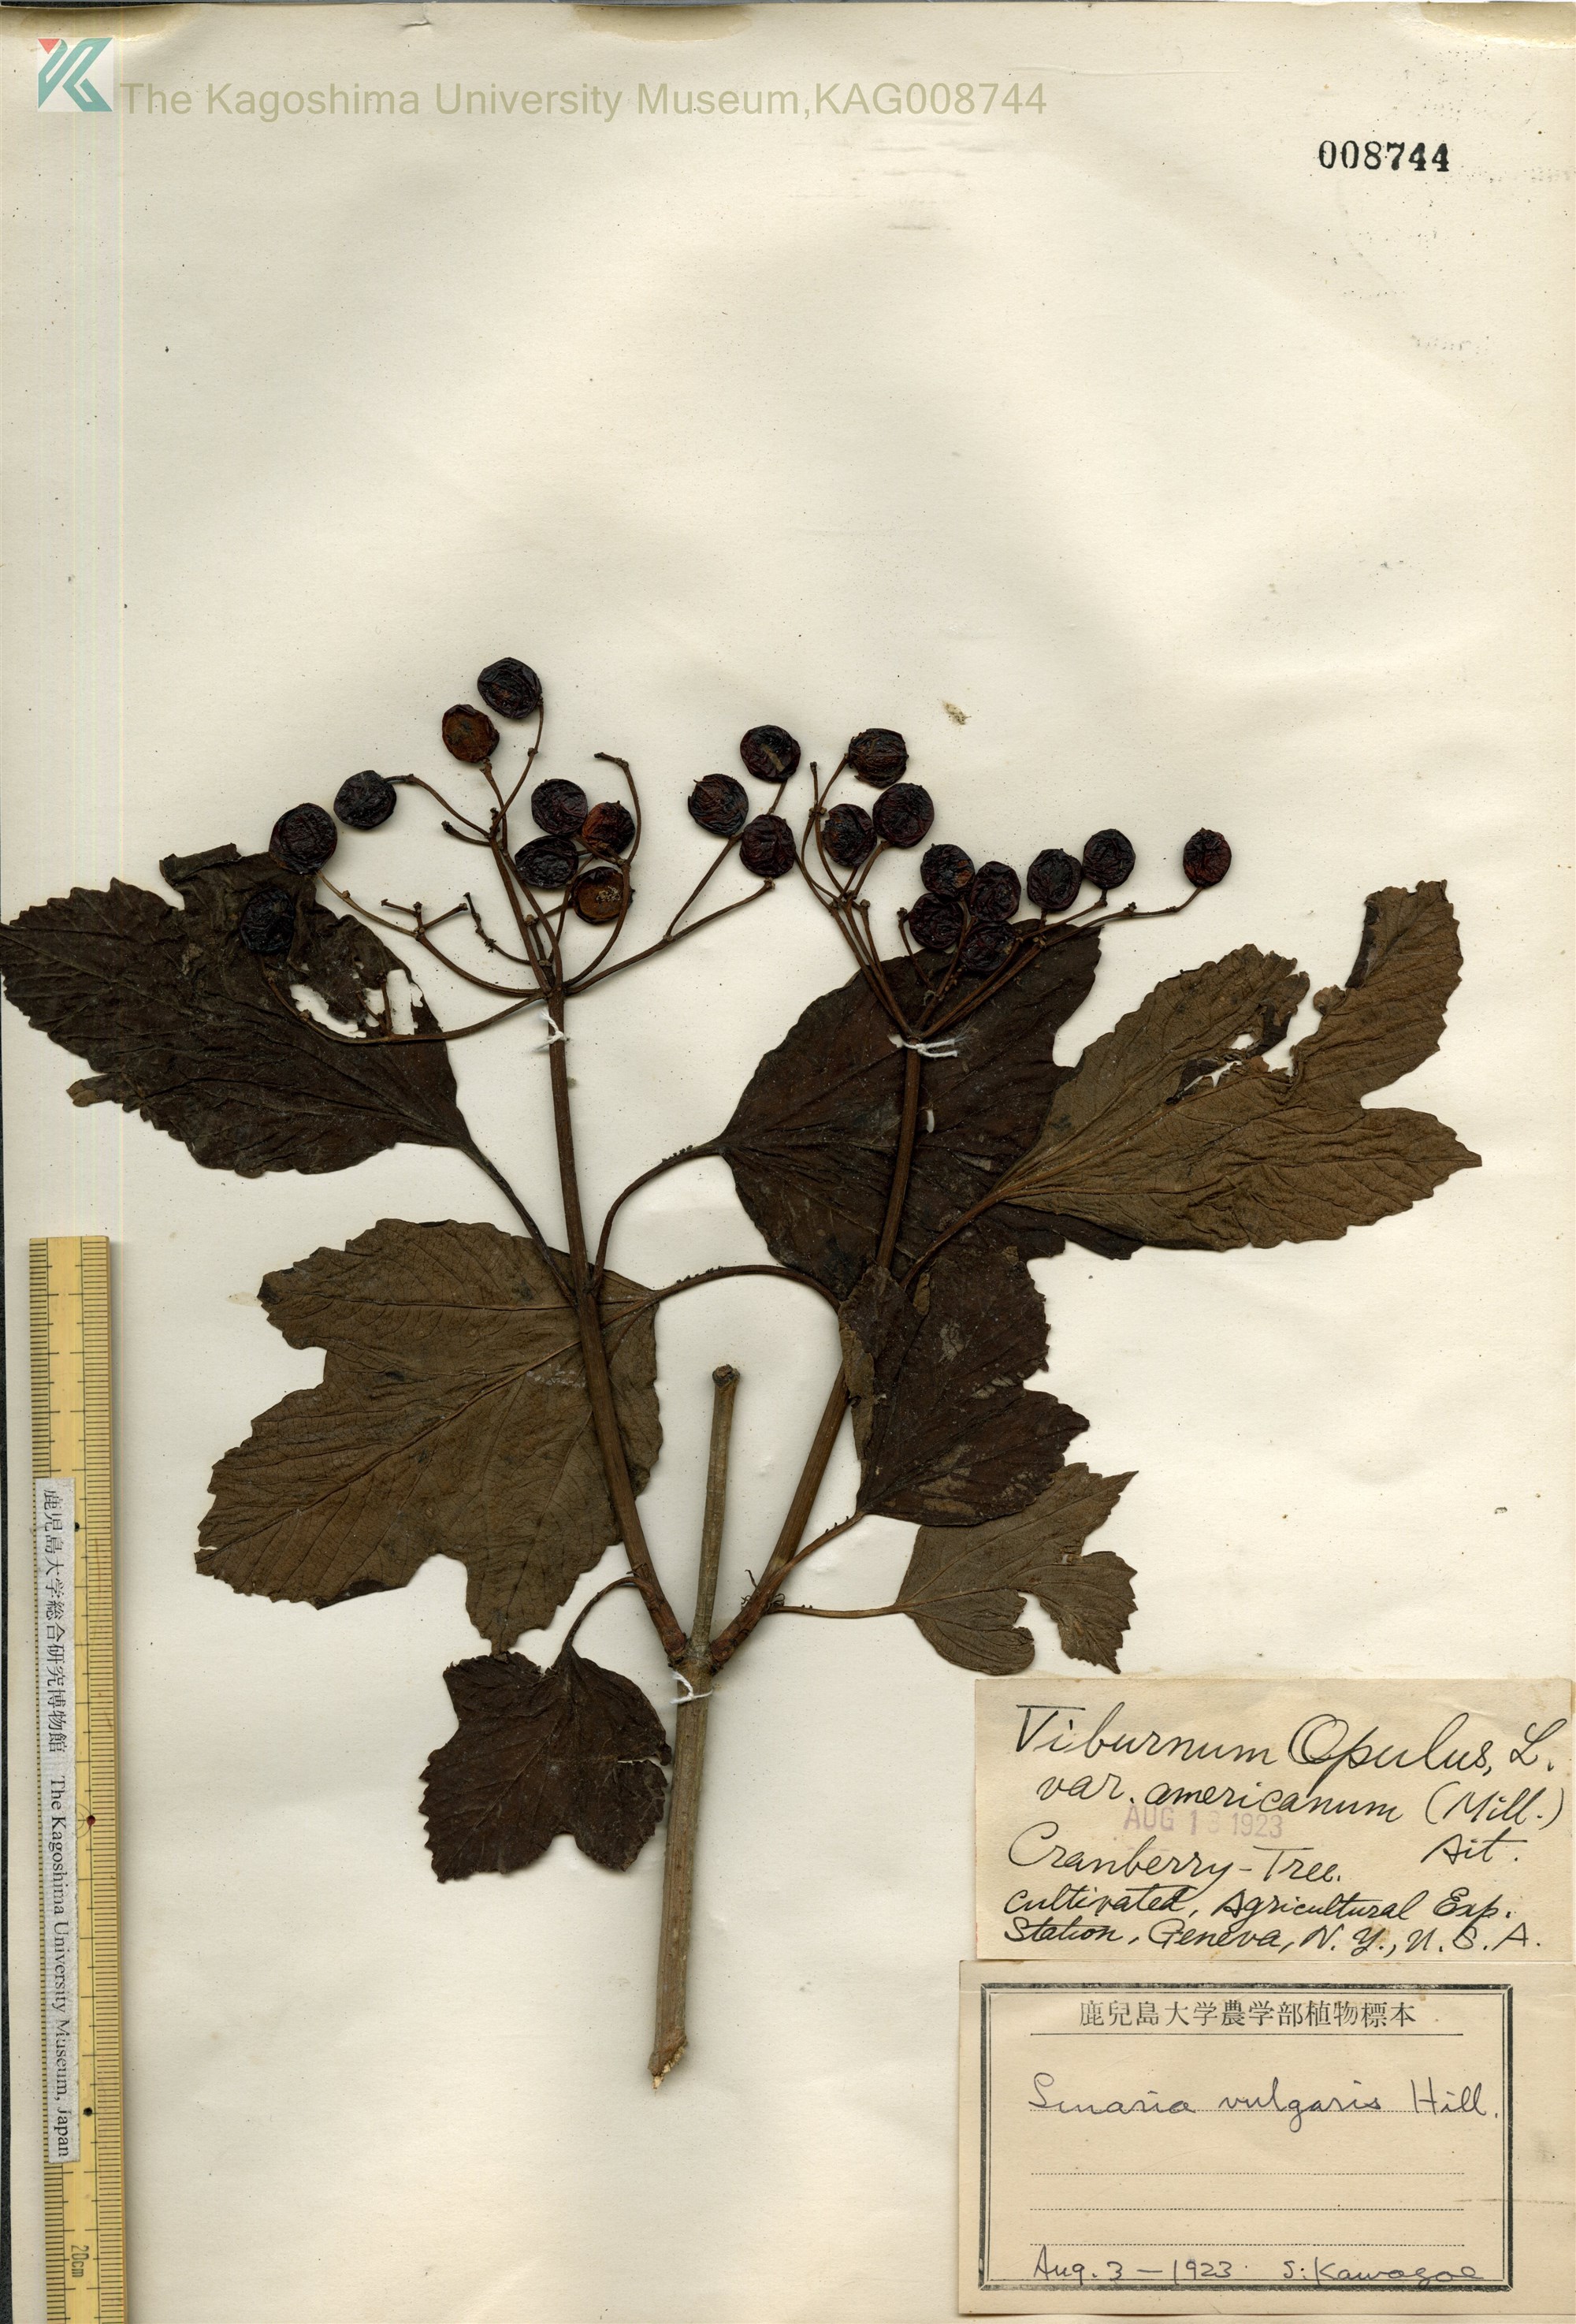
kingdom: Plantae
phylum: Tracheophyta
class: Magnoliopsida
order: Dipsacales
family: Viburnaceae
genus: Viburnum
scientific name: Viburnum opulus
